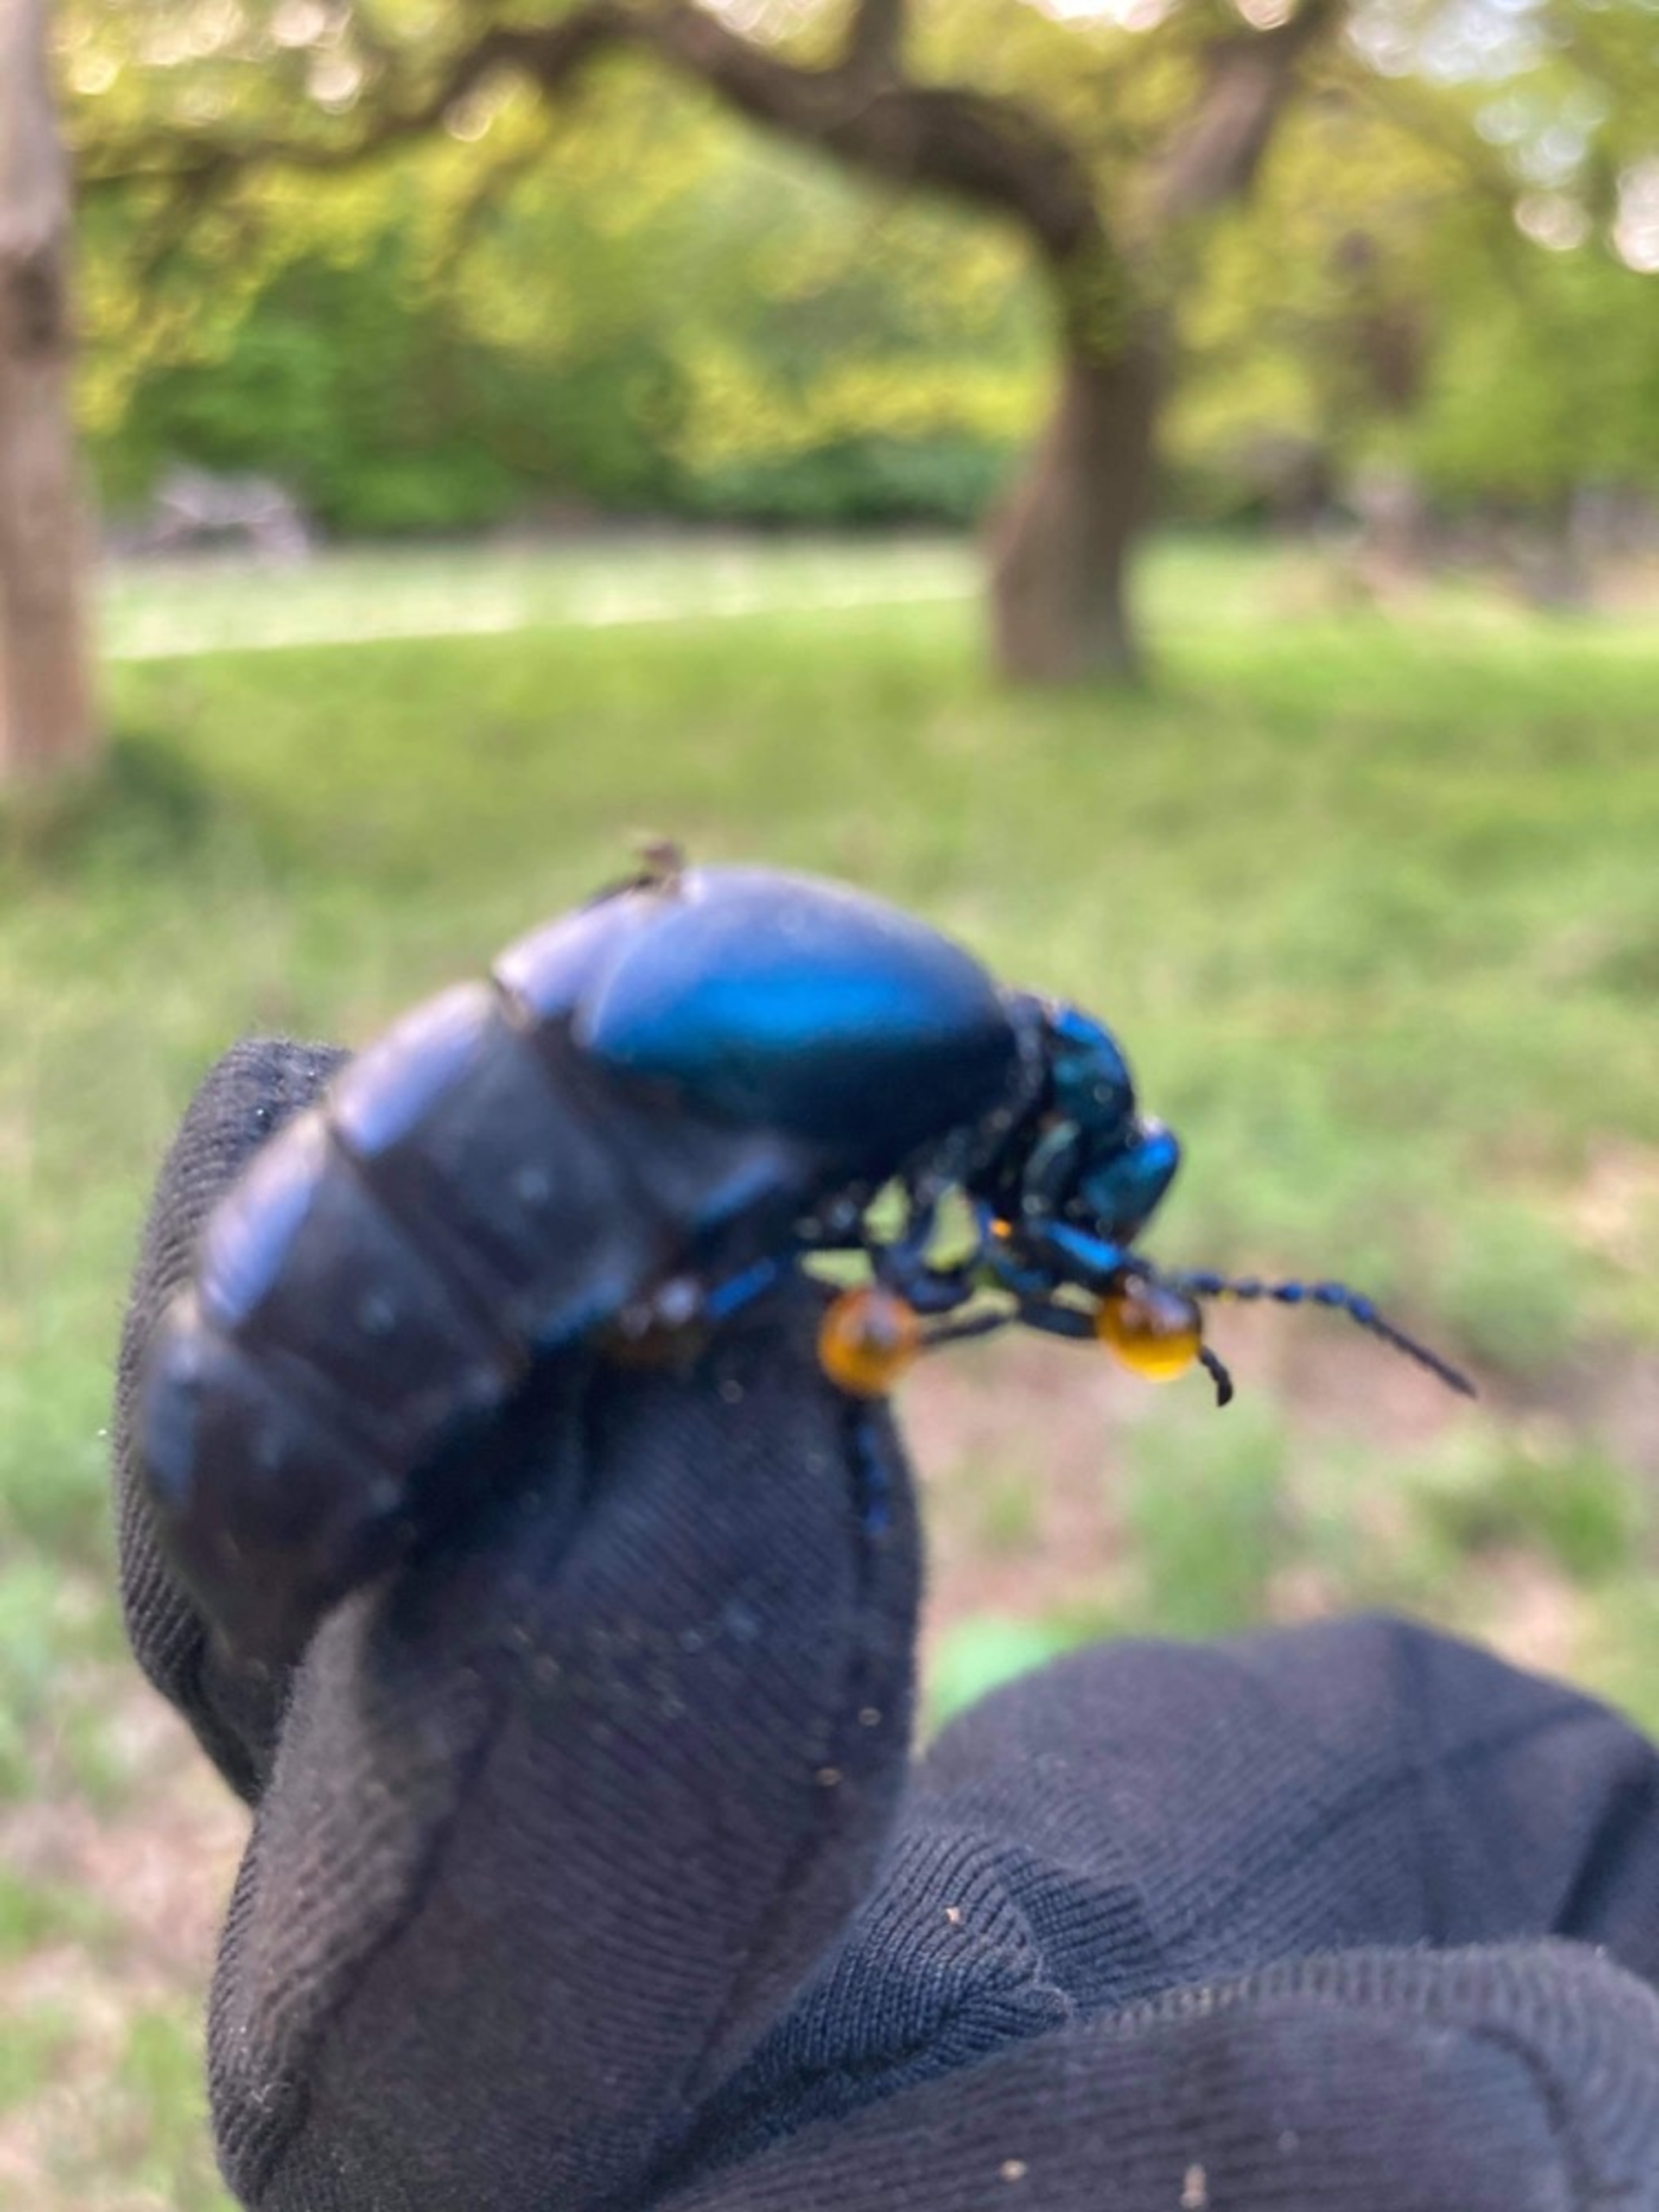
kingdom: Animalia
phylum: Arthropoda
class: Insecta
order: Coleoptera
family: Meloidae
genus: Meloe
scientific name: Meloe violaceus
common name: Blå oliebille
